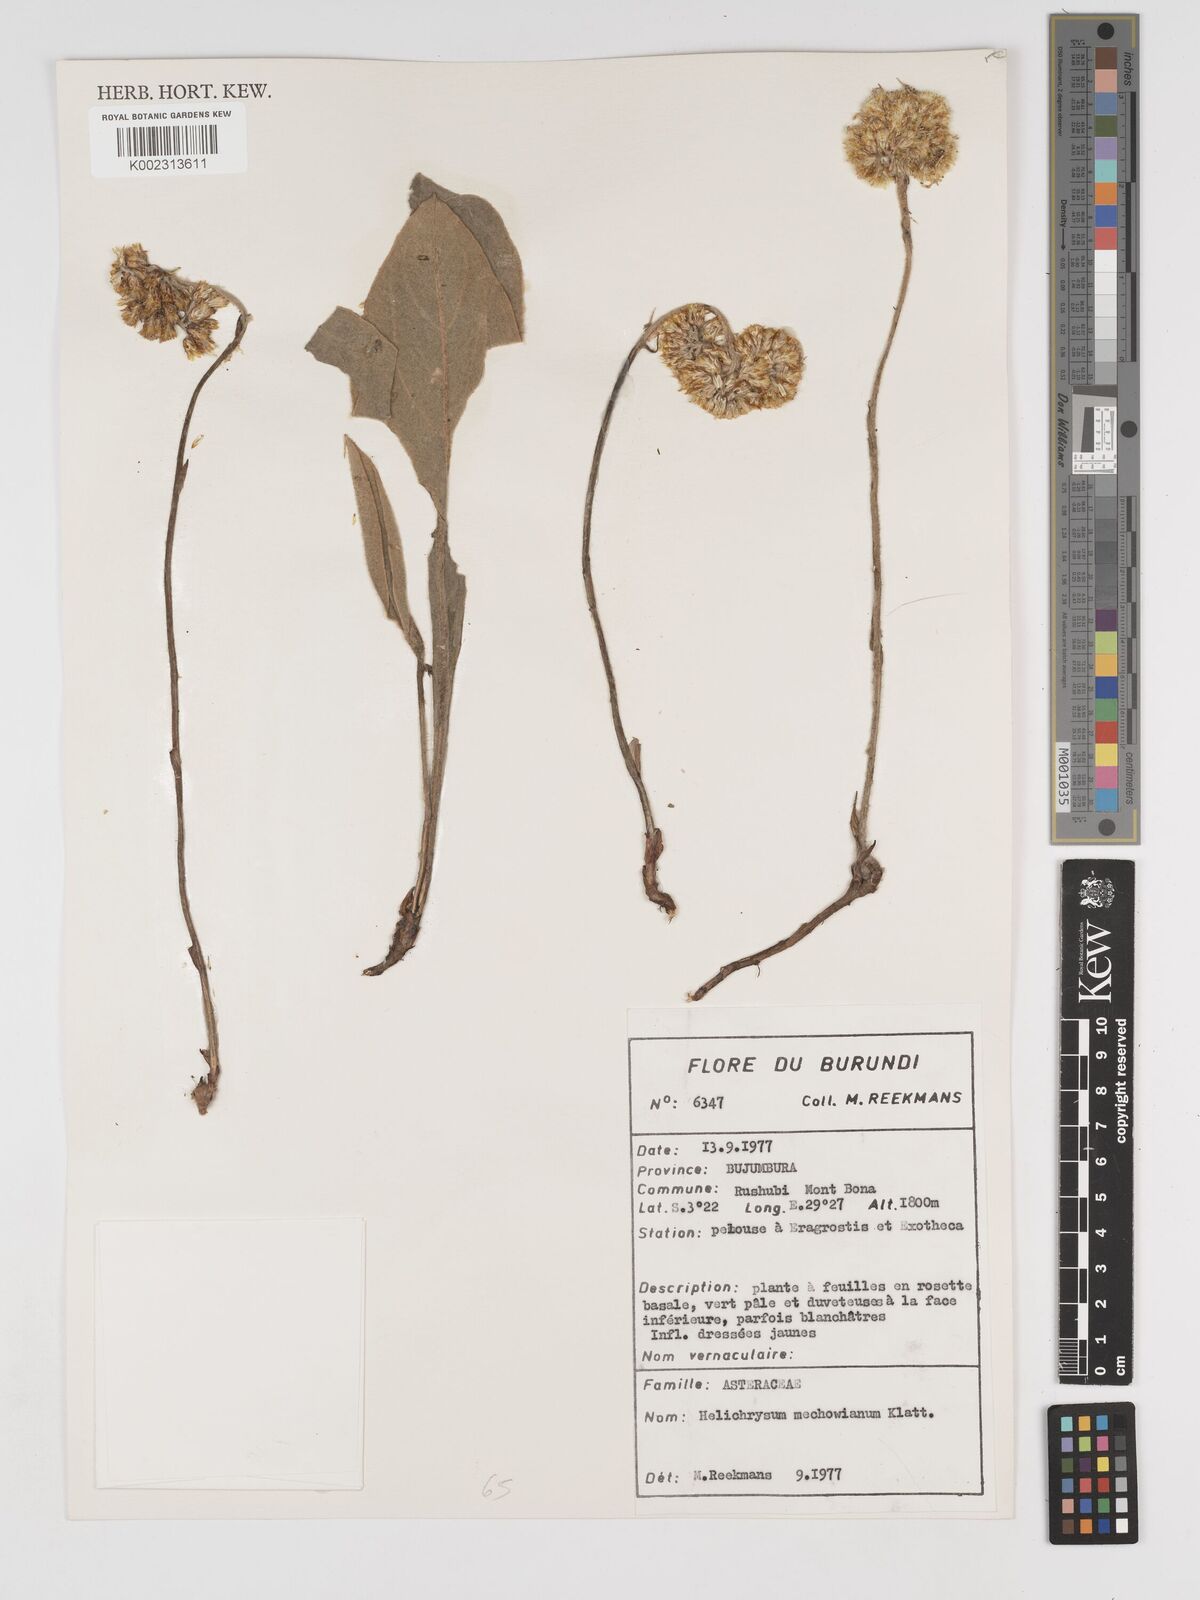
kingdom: Plantae
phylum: Tracheophyta
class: Magnoliopsida
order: Asterales
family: Asteraceae
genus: Helichrysum
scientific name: Helichrysum mechowianum
